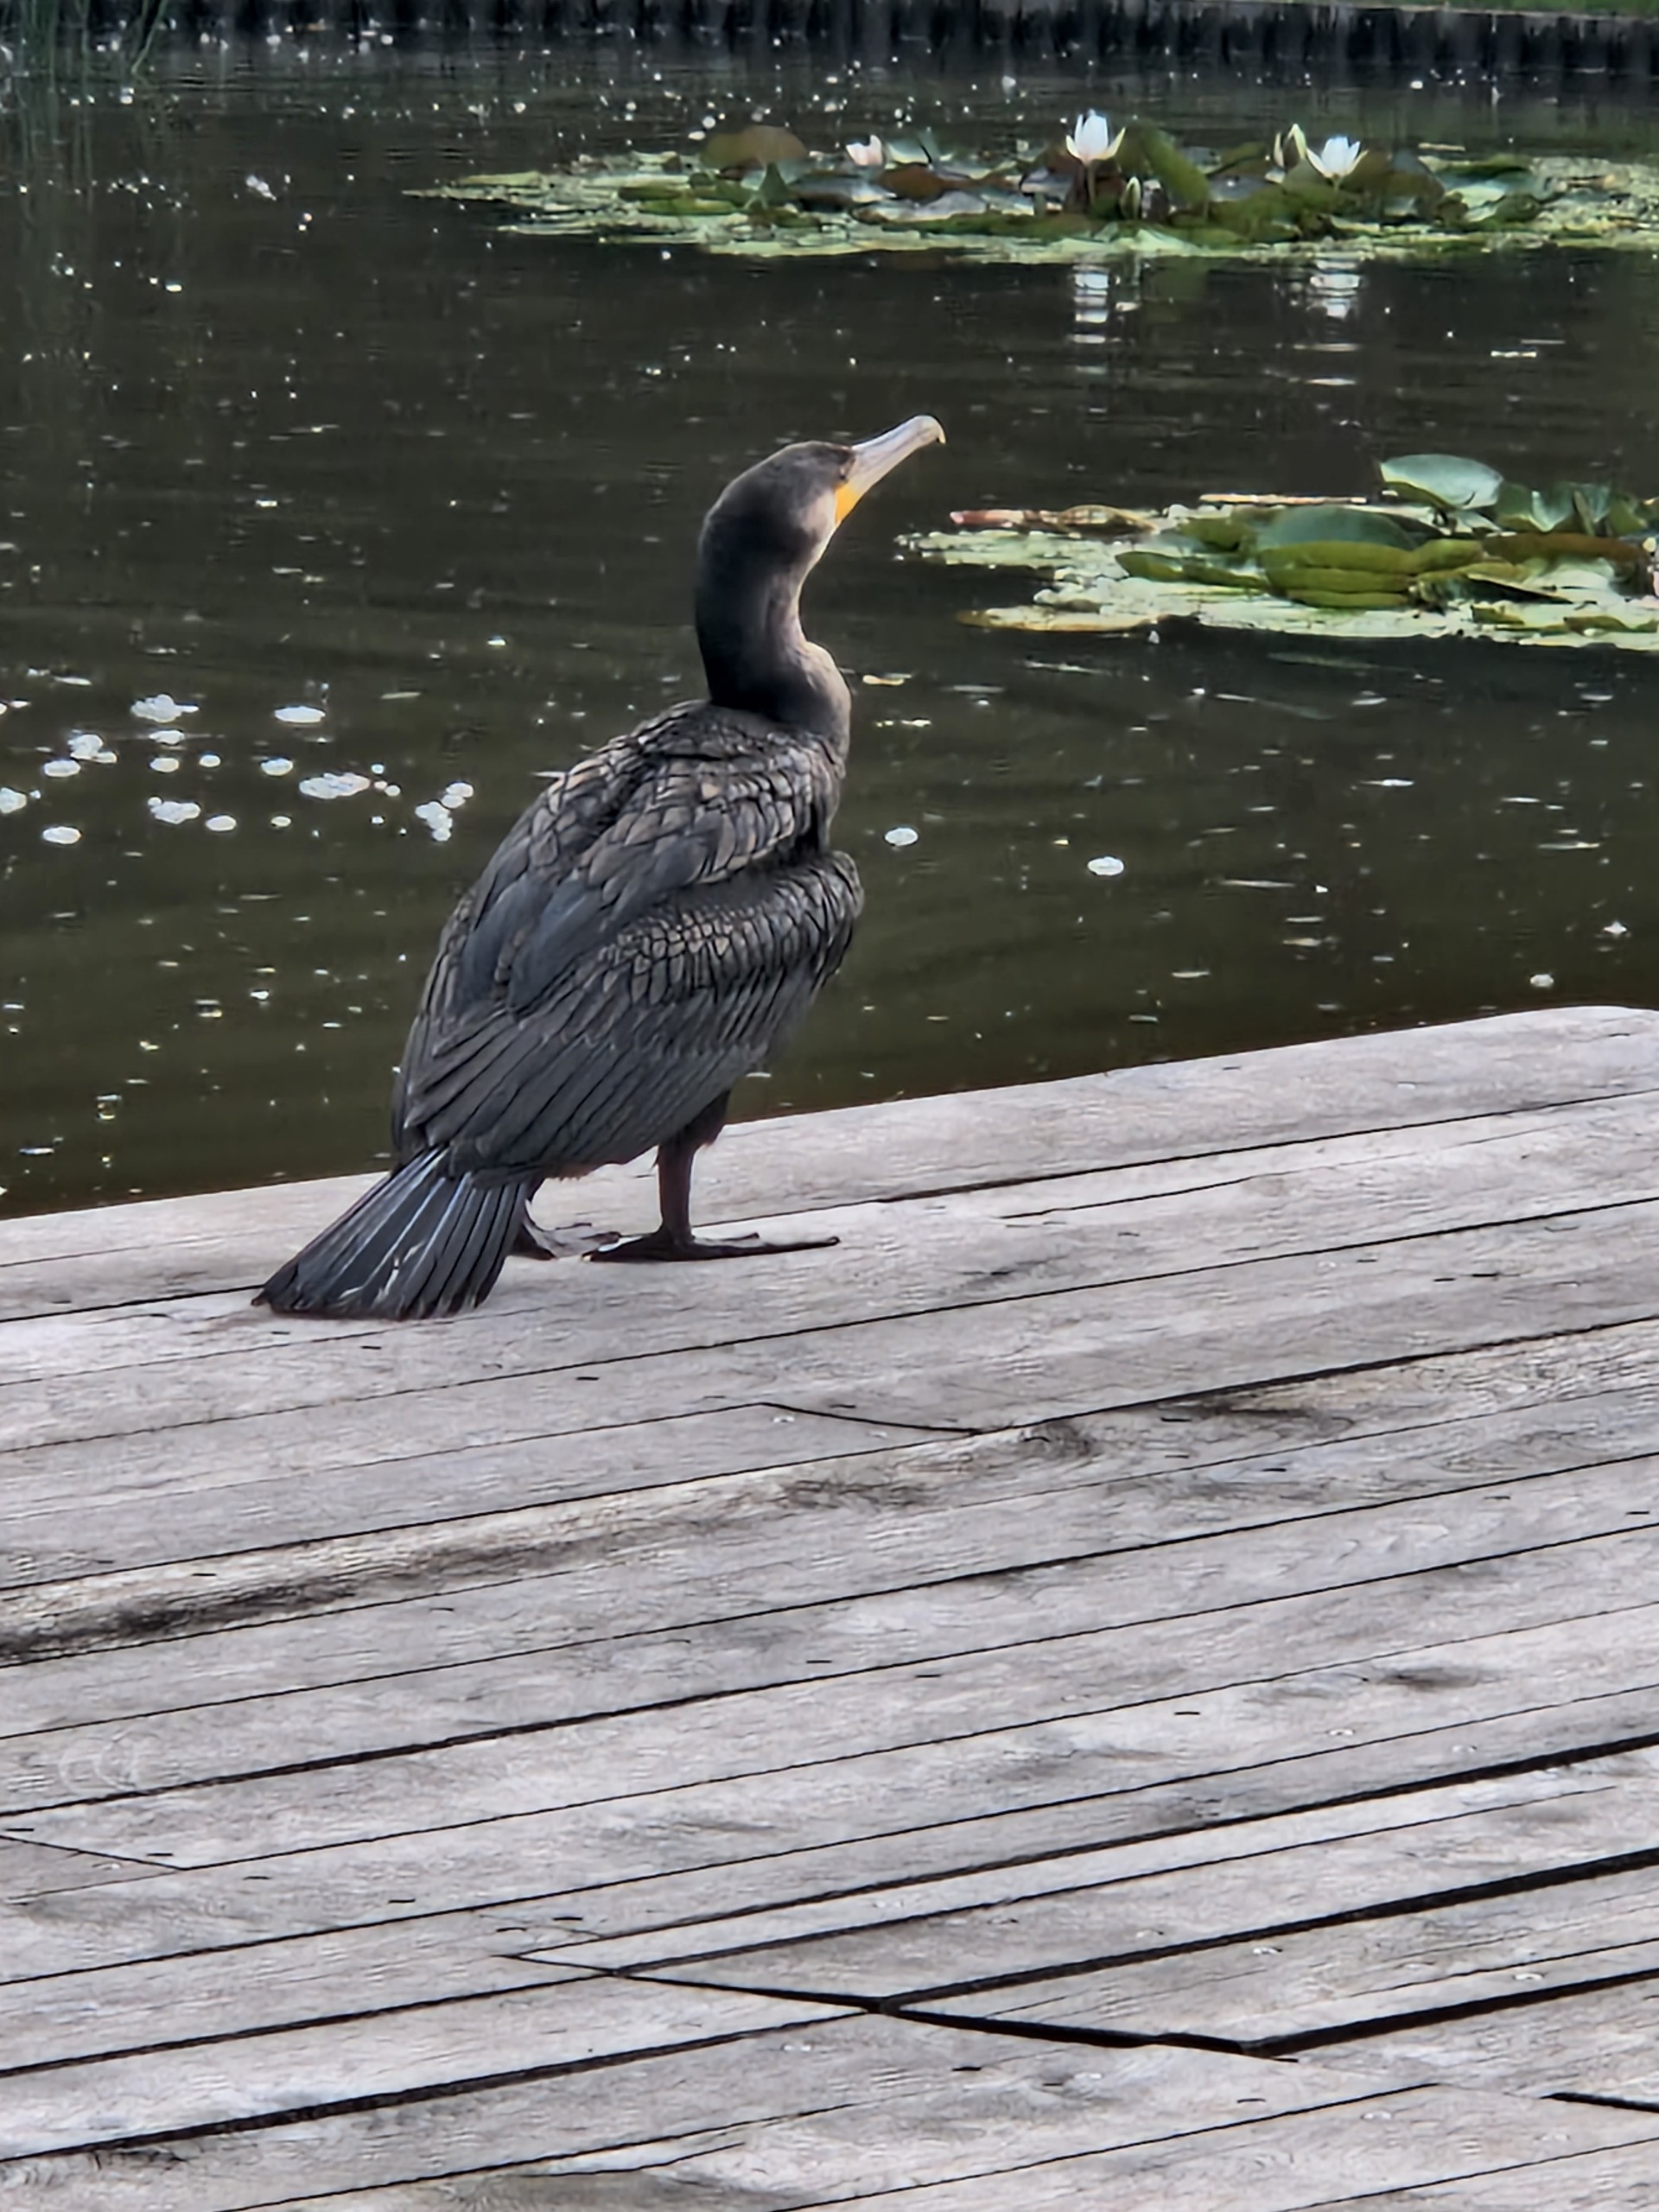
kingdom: Animalia
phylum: Chordata
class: Aves
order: Suliformes
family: Phalacrocoracidae
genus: Phalacrocorax
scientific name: Phalacrocorax carbo
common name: Skarv
